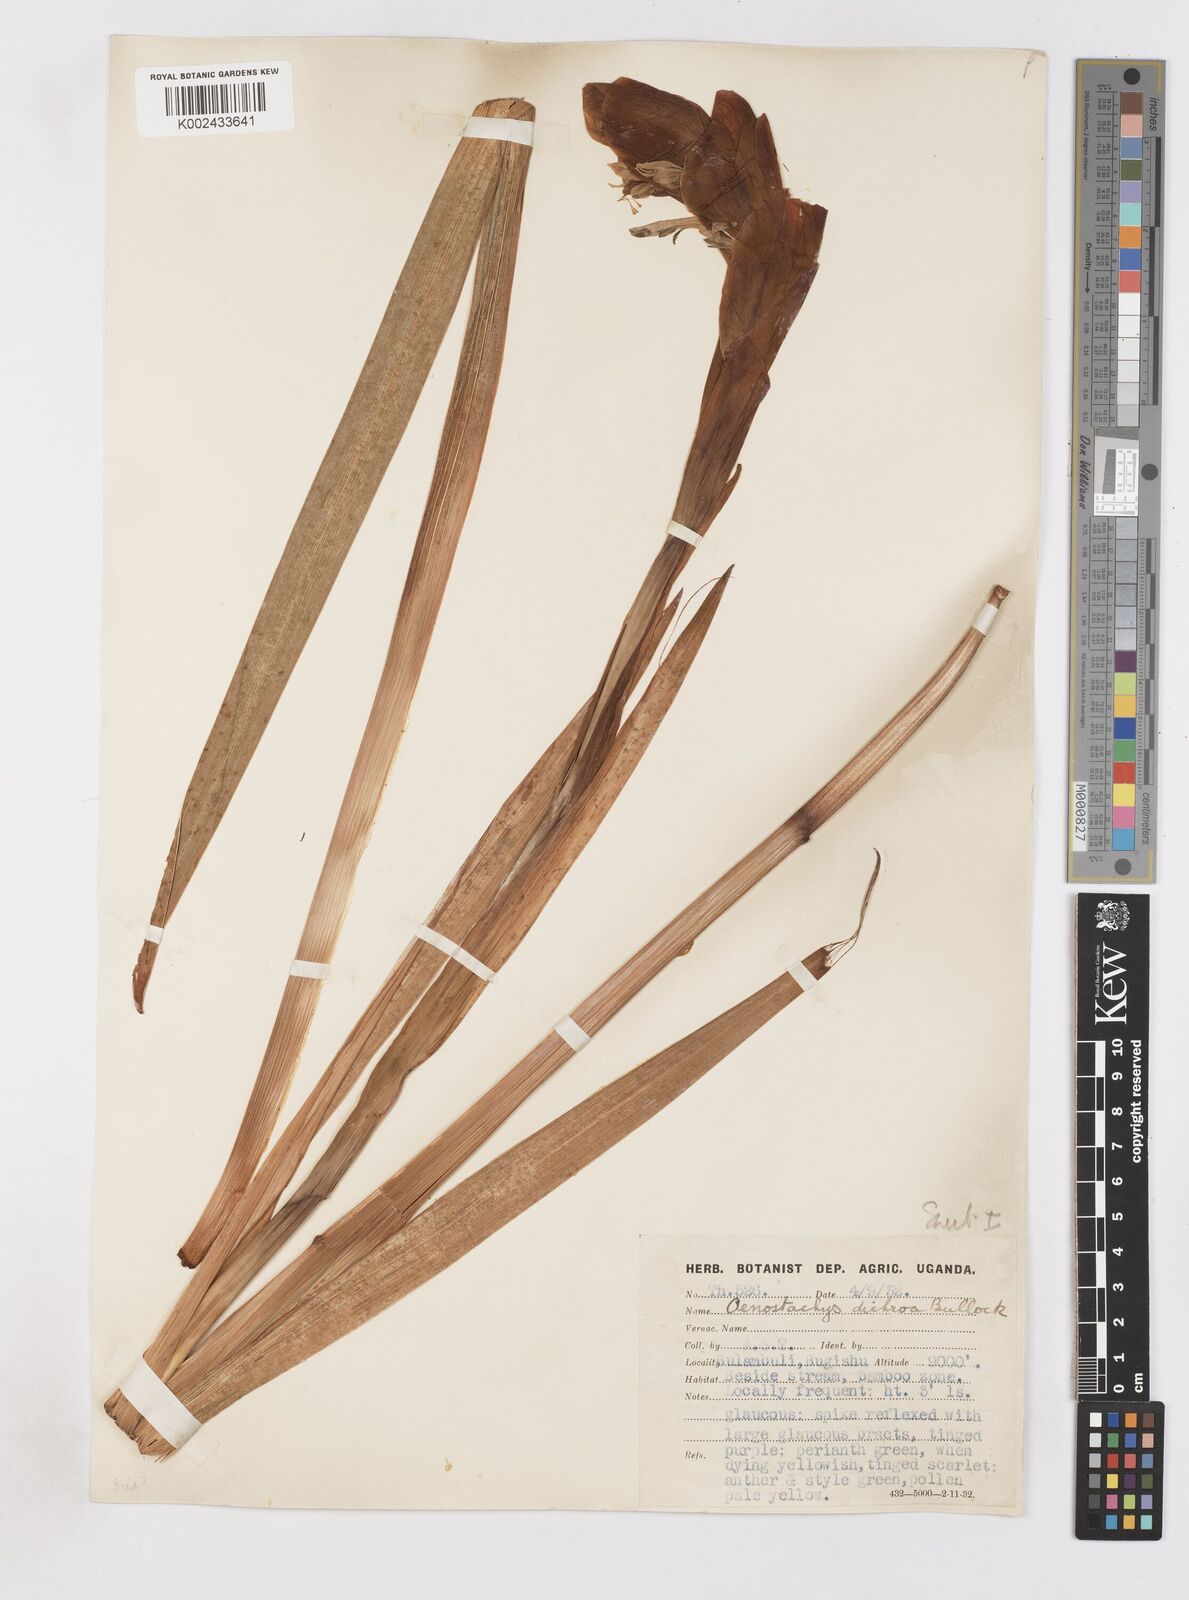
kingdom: Plantae
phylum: Tracheophyta
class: Liliopsida
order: Asparagales
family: Iridaceae
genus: Gladiolus
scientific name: Gladiolus dichrous
